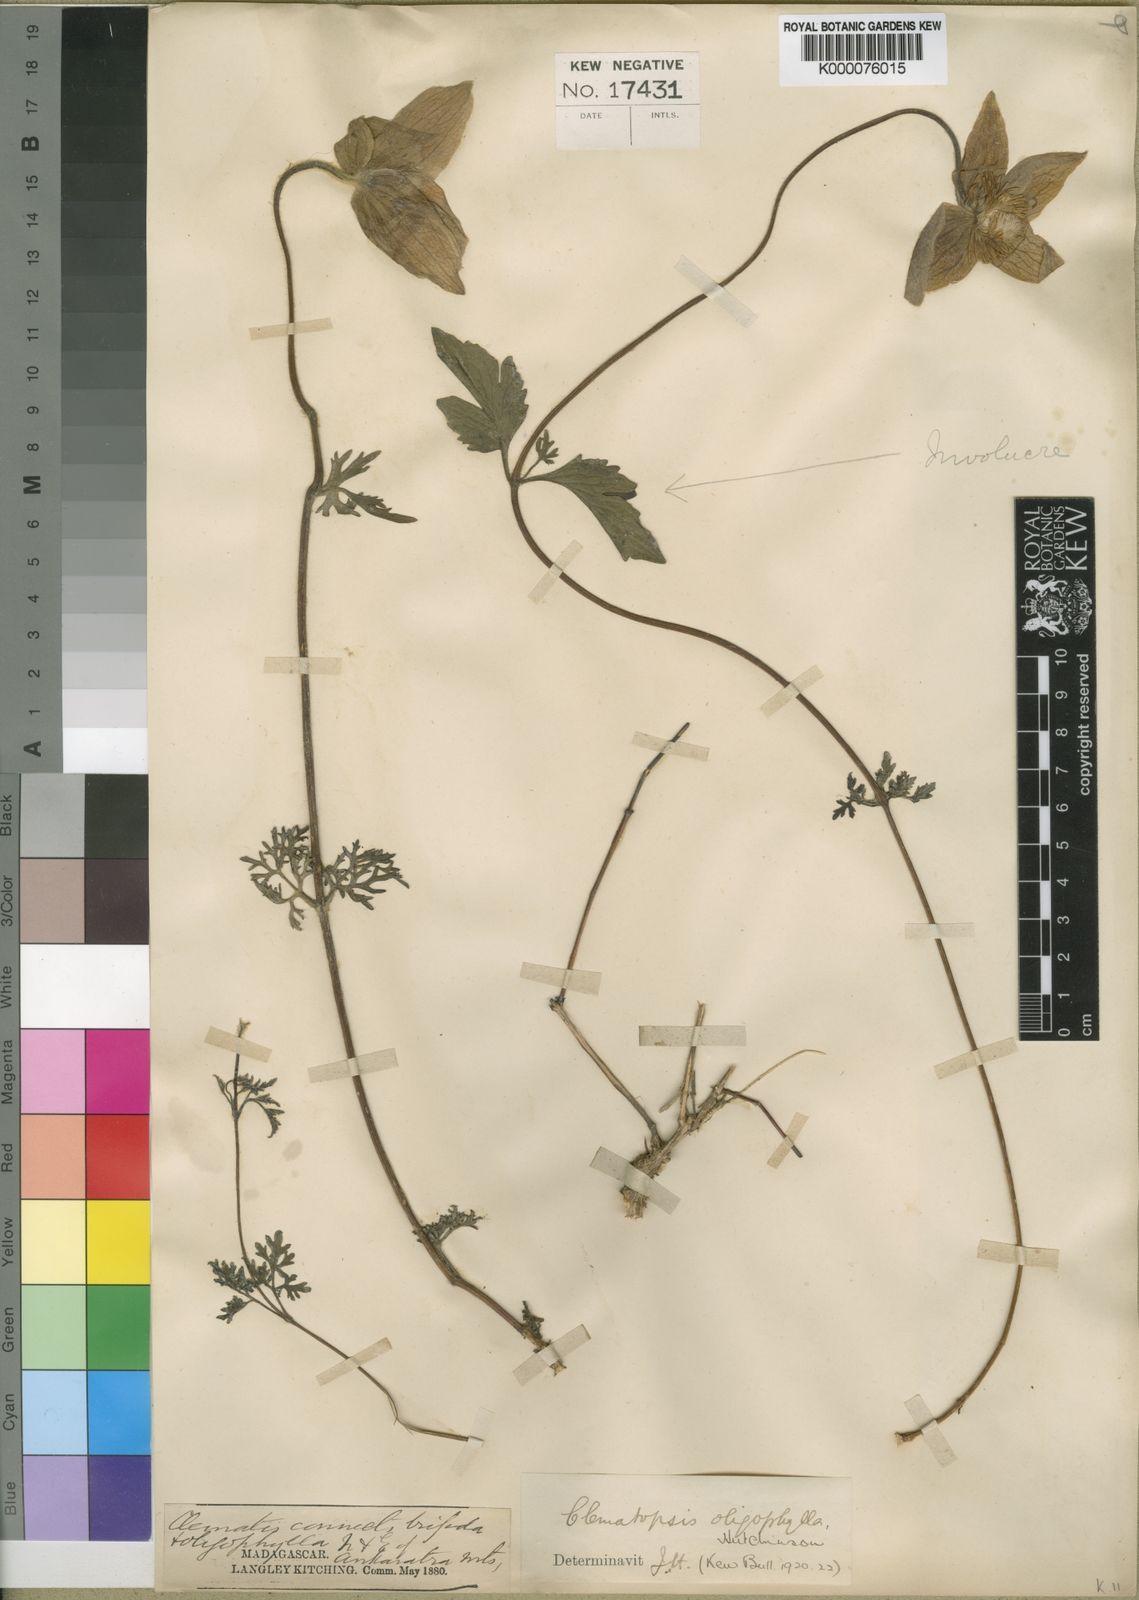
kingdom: Plantae
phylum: Tracheophyta
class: Magnoliopsida
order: Ranunculales
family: Ranunculaceae
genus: Clematis
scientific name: Clematis oligophylla
